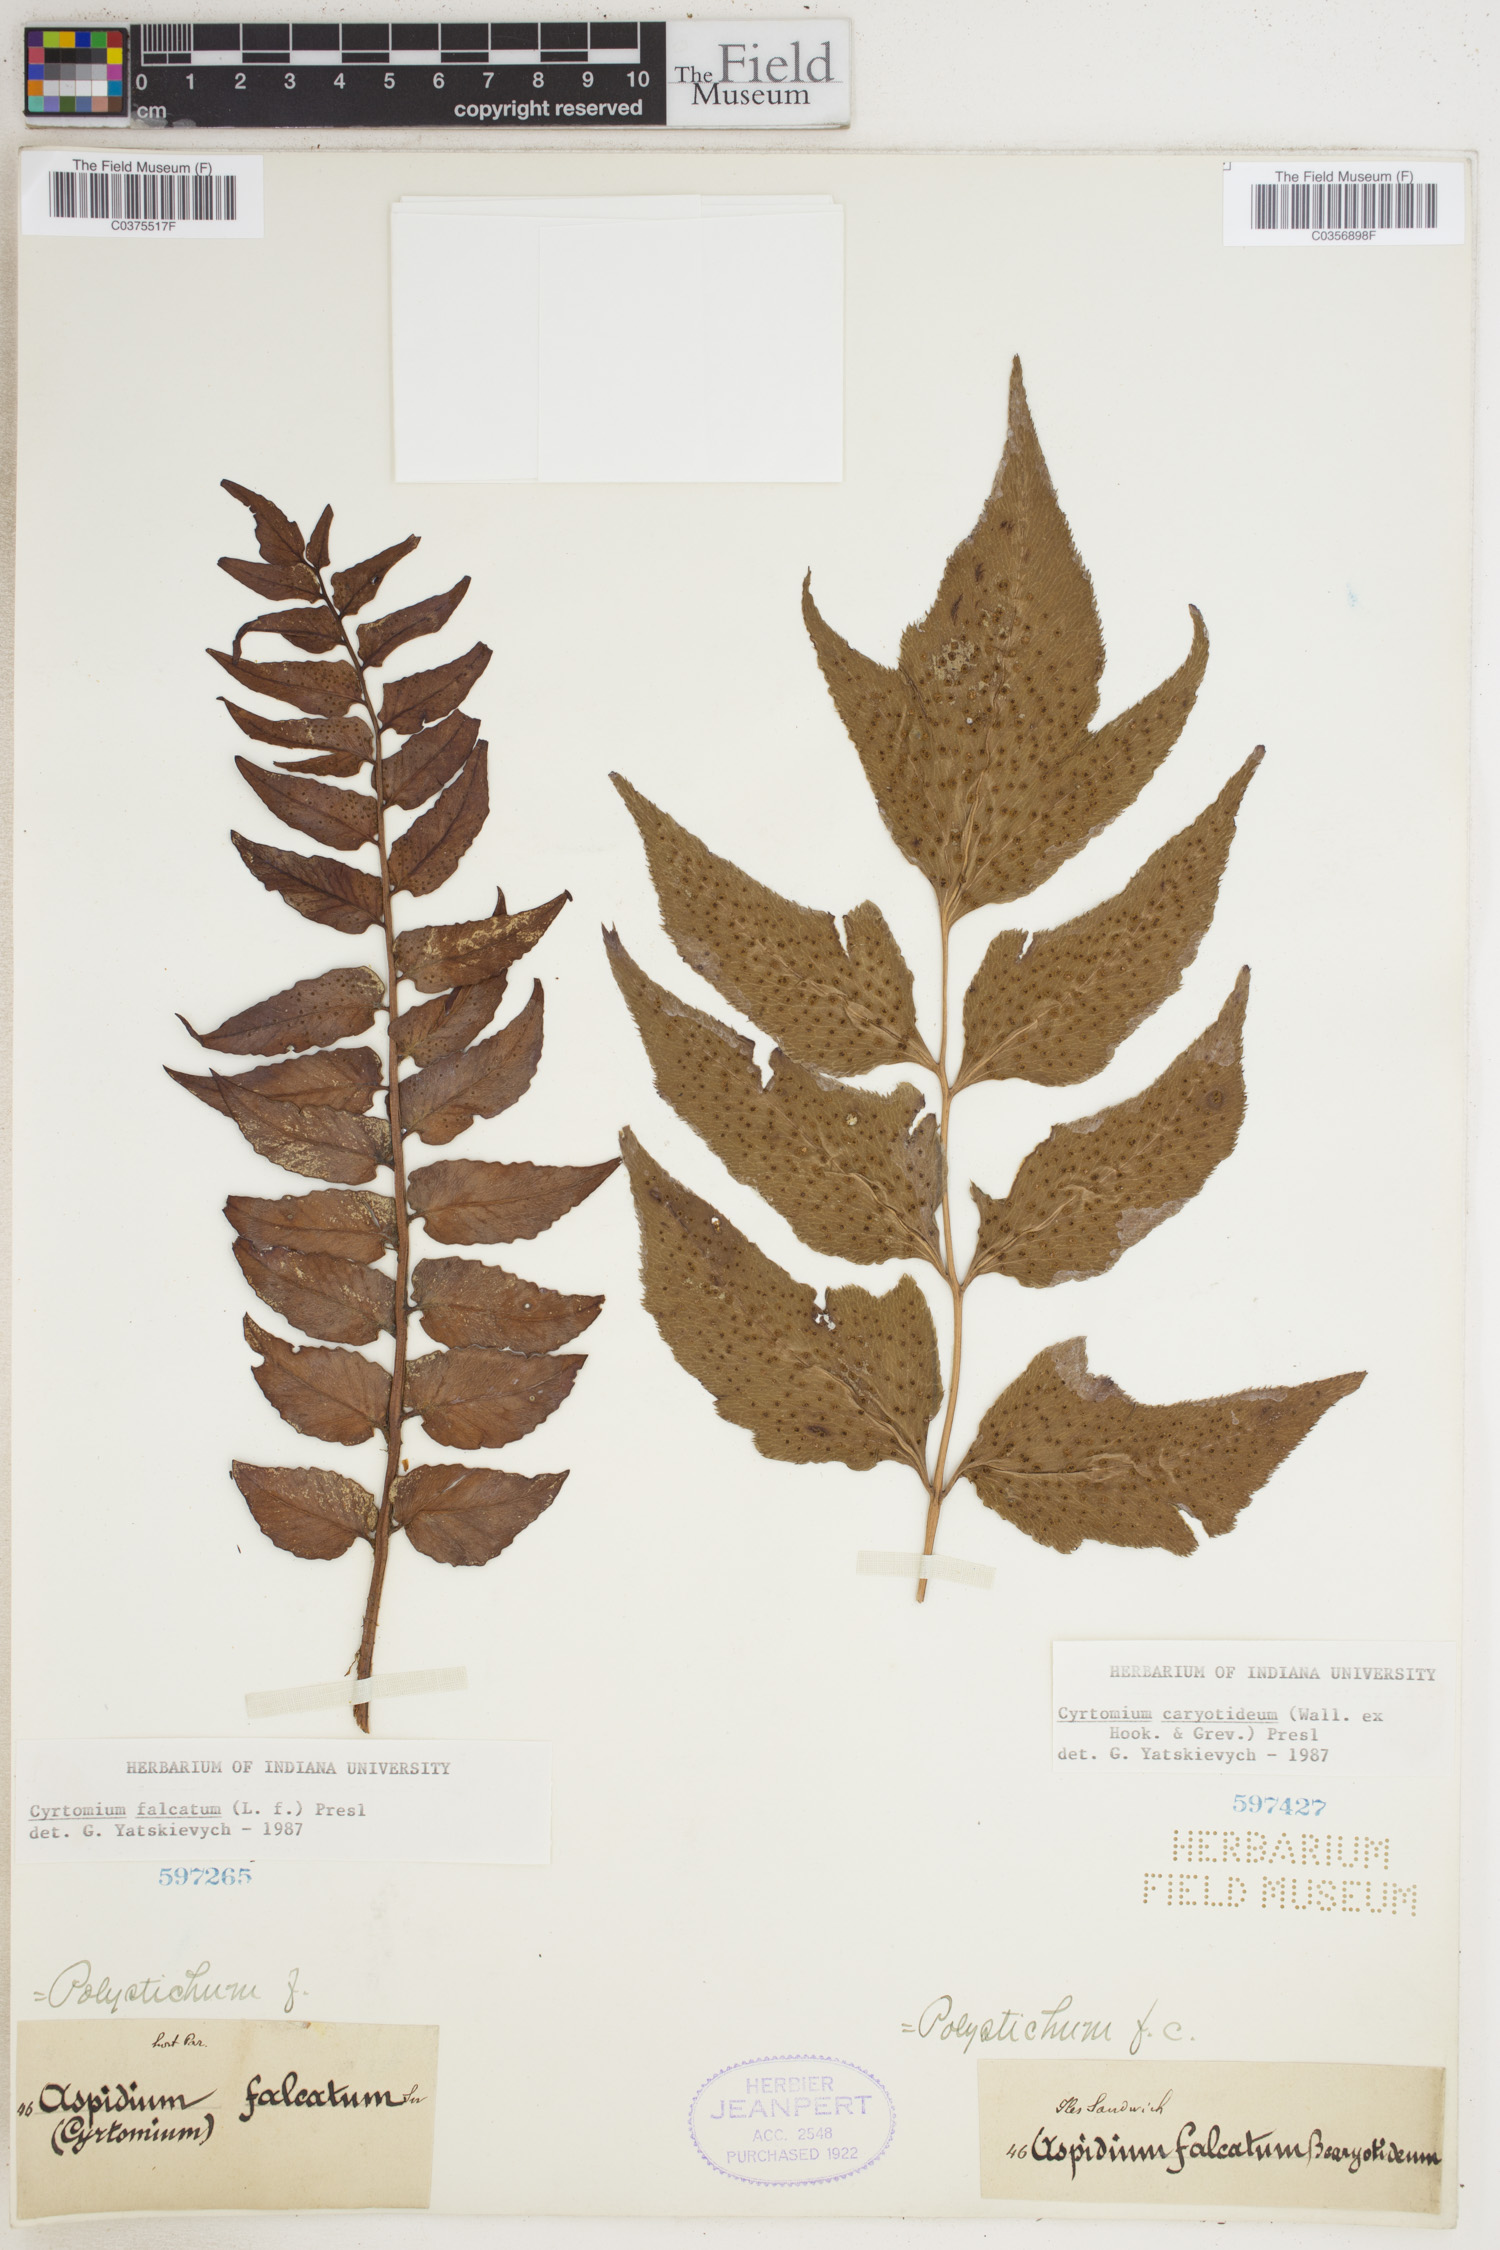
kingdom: Plantae
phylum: Tracheophyta
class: Polypodiopsida
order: Polypodiales
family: Dryopteridaceae
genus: Cyrtomium
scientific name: Cyrtomium falcatum
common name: House holly-fern
